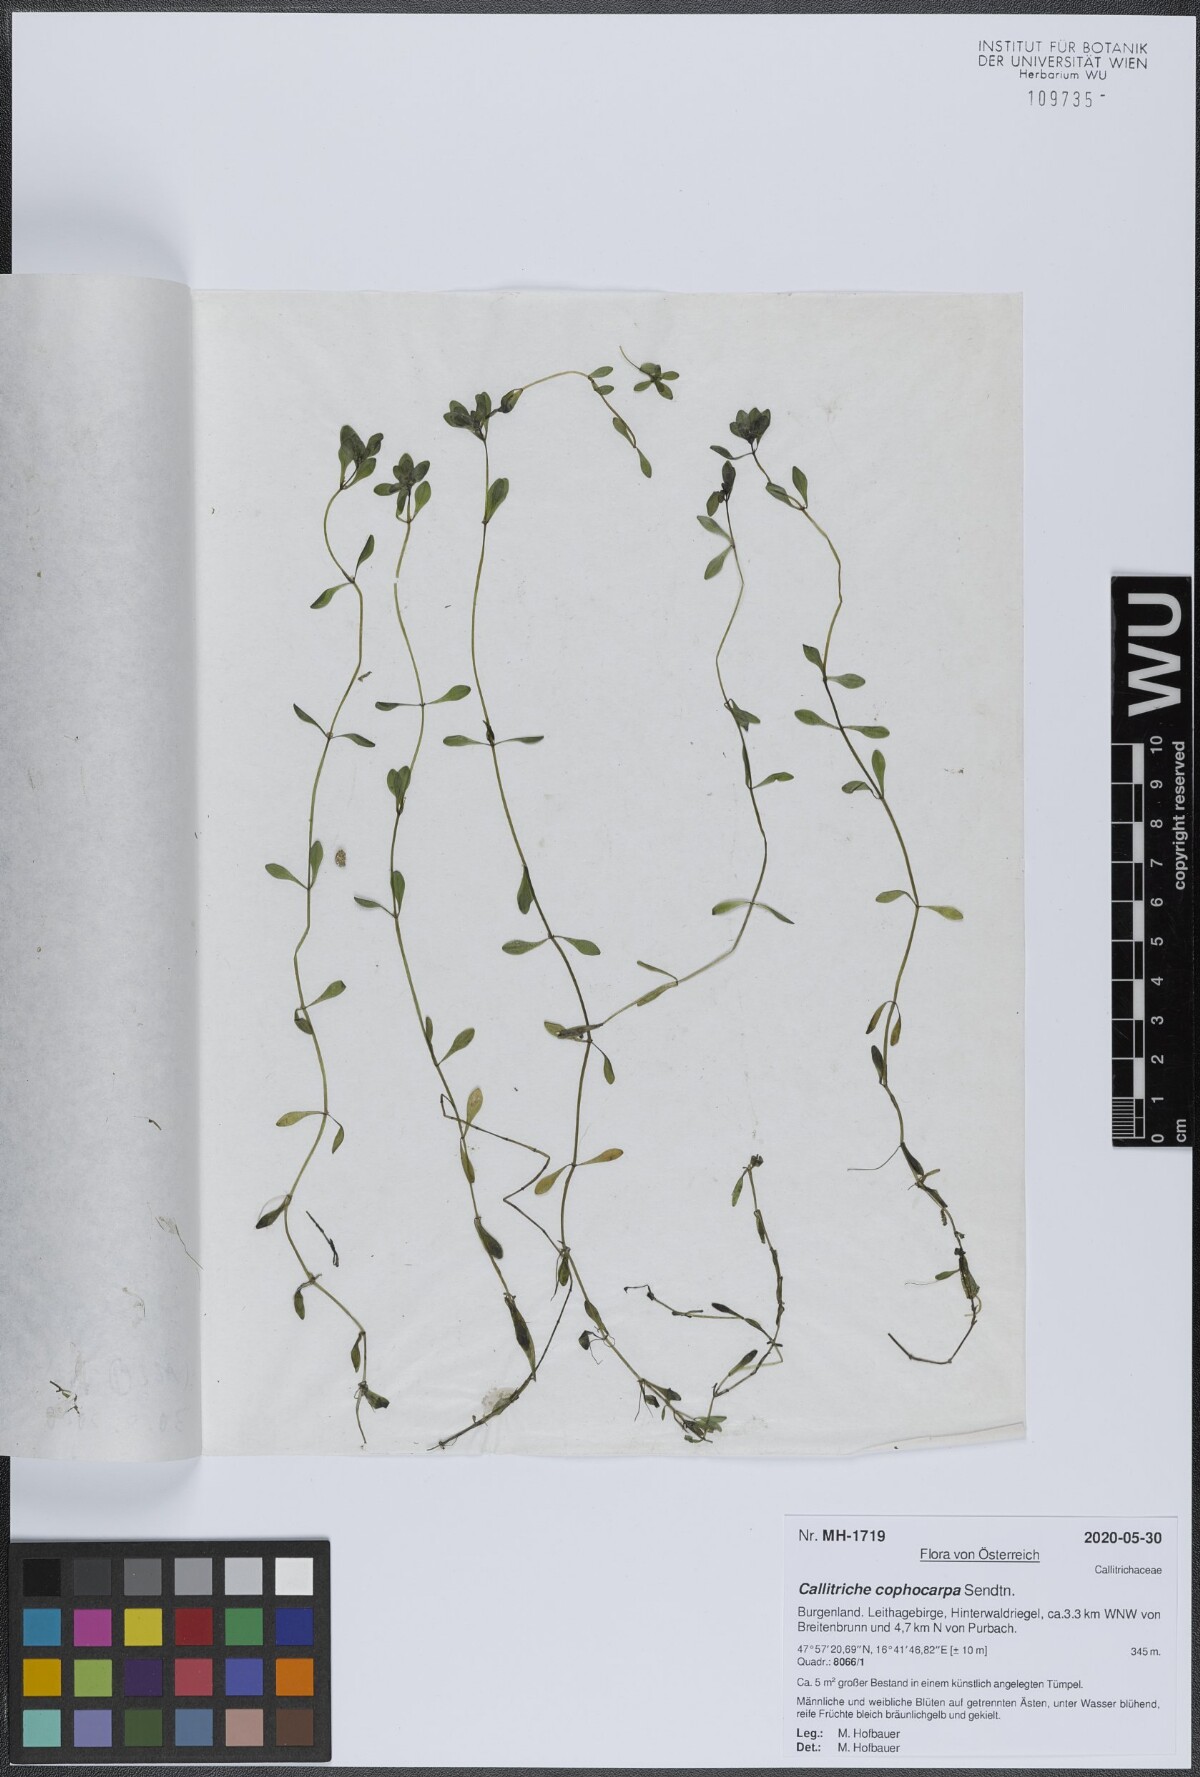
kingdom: Plantae
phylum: Tracheophyta
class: Magnoliopsida
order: Lamiales
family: Plantaginaceae
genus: Callitriche
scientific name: Callitriche cophocarpa
